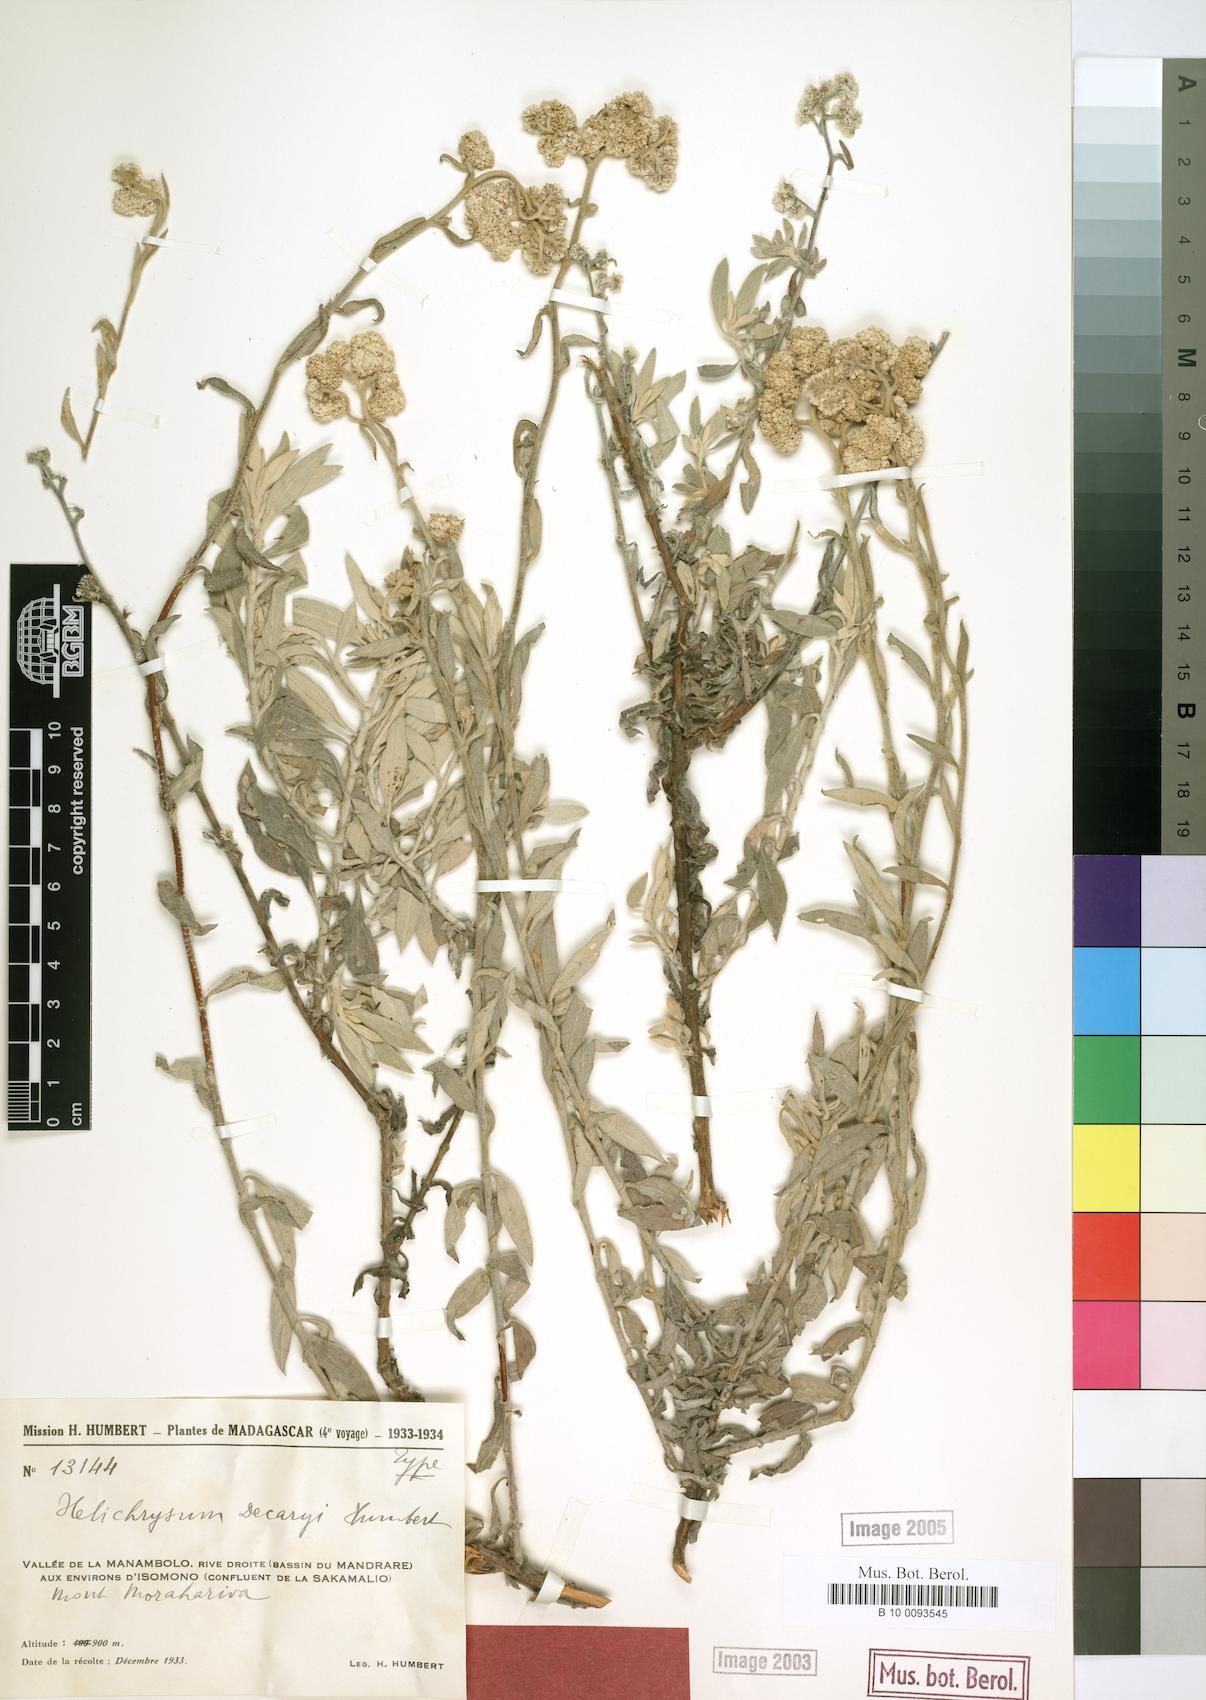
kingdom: Plantae
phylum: Tracheophyta
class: Magnoliopsida
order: Asterales
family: Asteraceae
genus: Helichrysum
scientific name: Helichrysum decaryi
